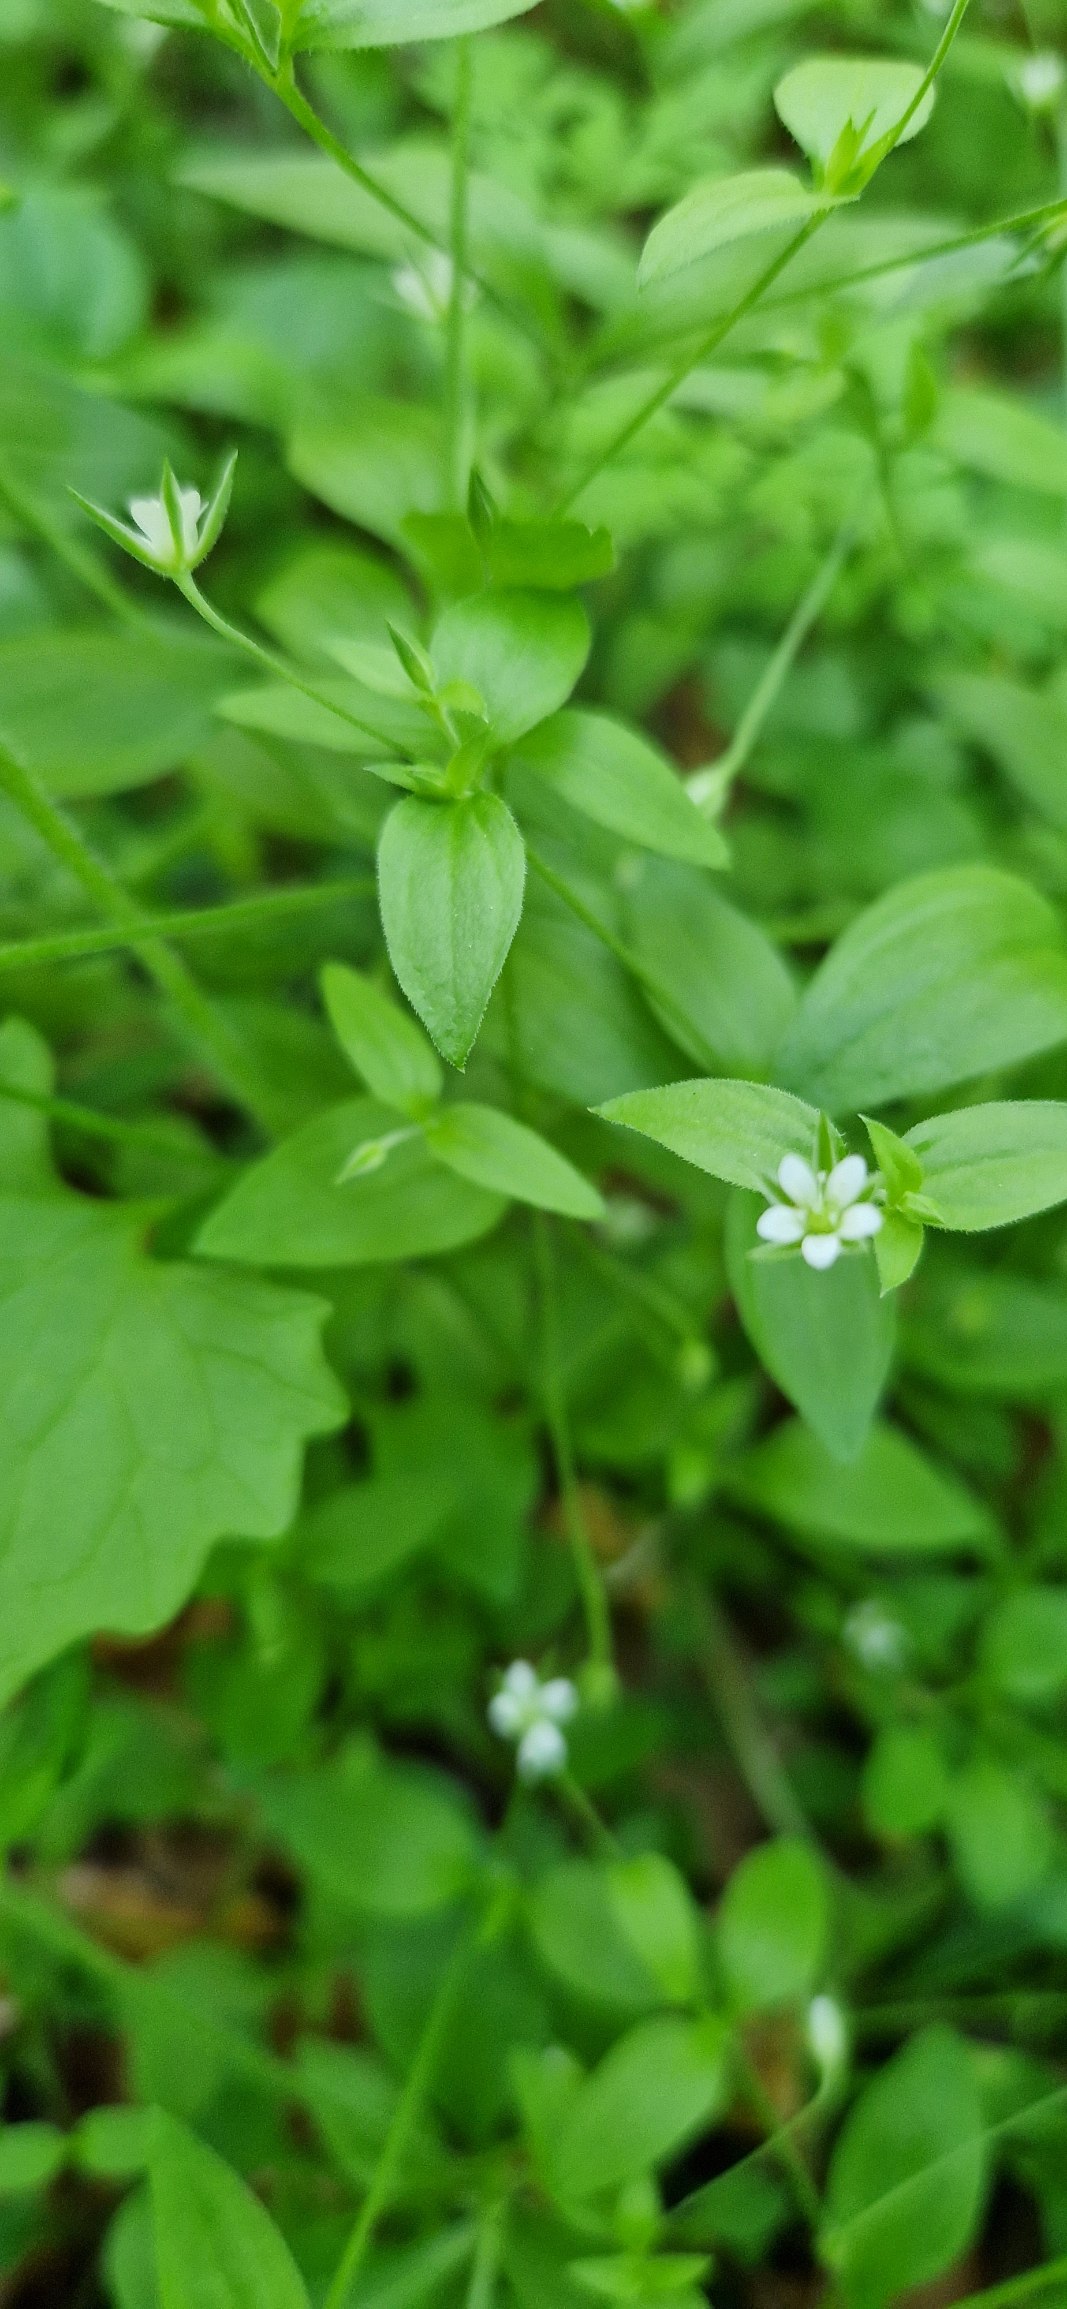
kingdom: Plantae
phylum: Tracheophyta
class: Magnoliopsida
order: Caryophyllales
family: Caryophyllaceae
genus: Moehringia
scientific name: Moehringia trinervia
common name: Skovarve
